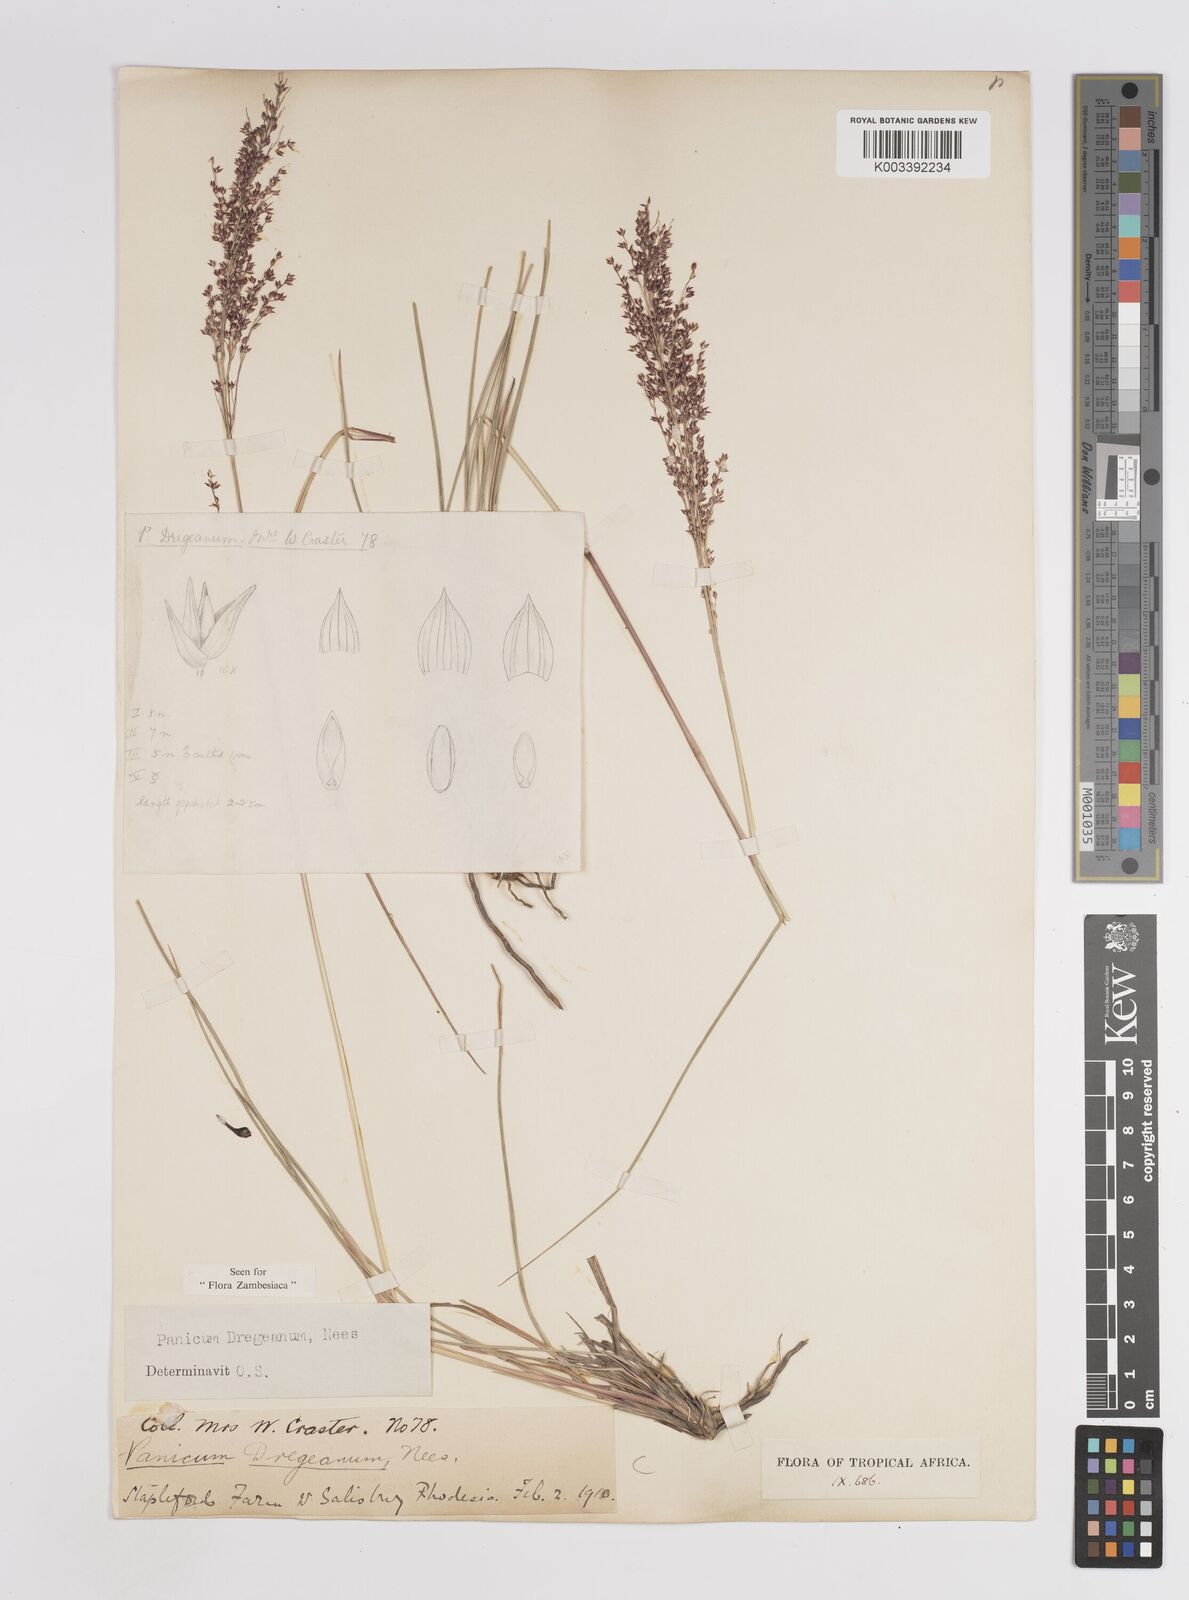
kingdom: Plantae
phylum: Tracheophyta
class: Liliopsida
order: Poales
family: Poaceae
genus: Panicum
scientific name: Panicum dregeanum
